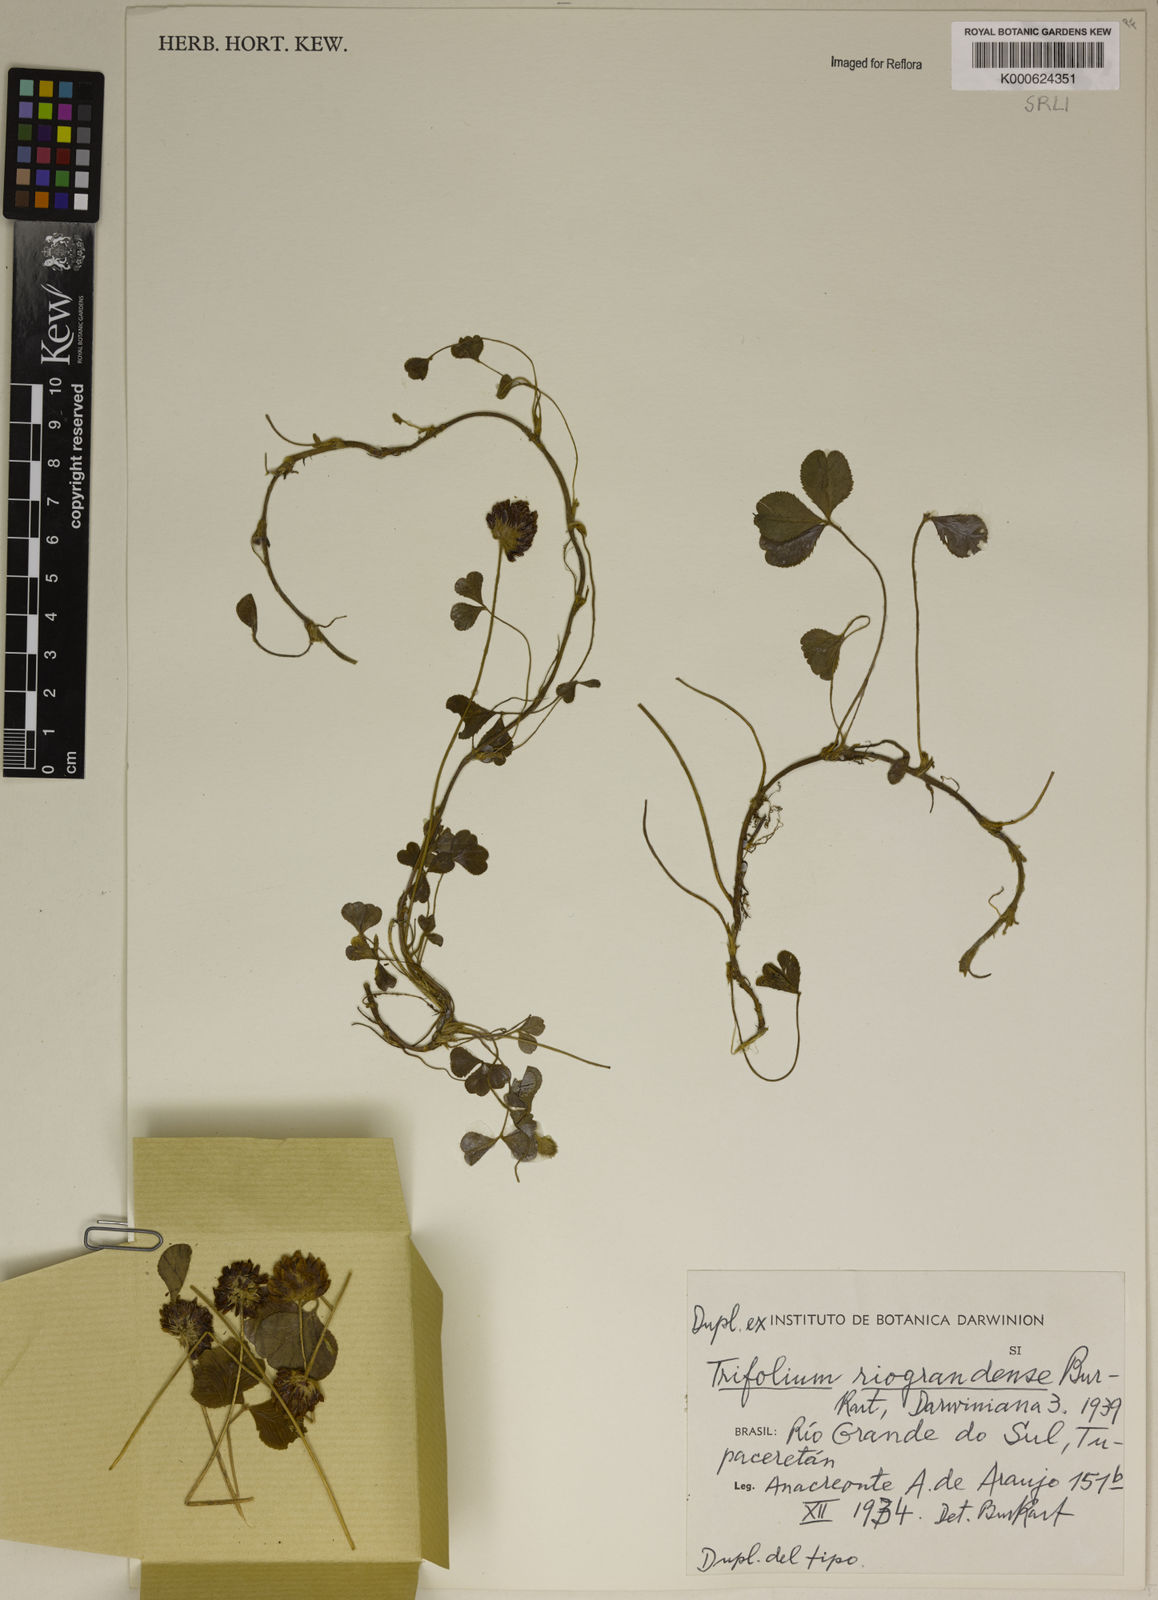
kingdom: Plantae
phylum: Tracheophyta
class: Magnoliopsida
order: Fabales
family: Fabaceae
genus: Trifolium
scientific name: Trifolium riograndense
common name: Rio grande clover
